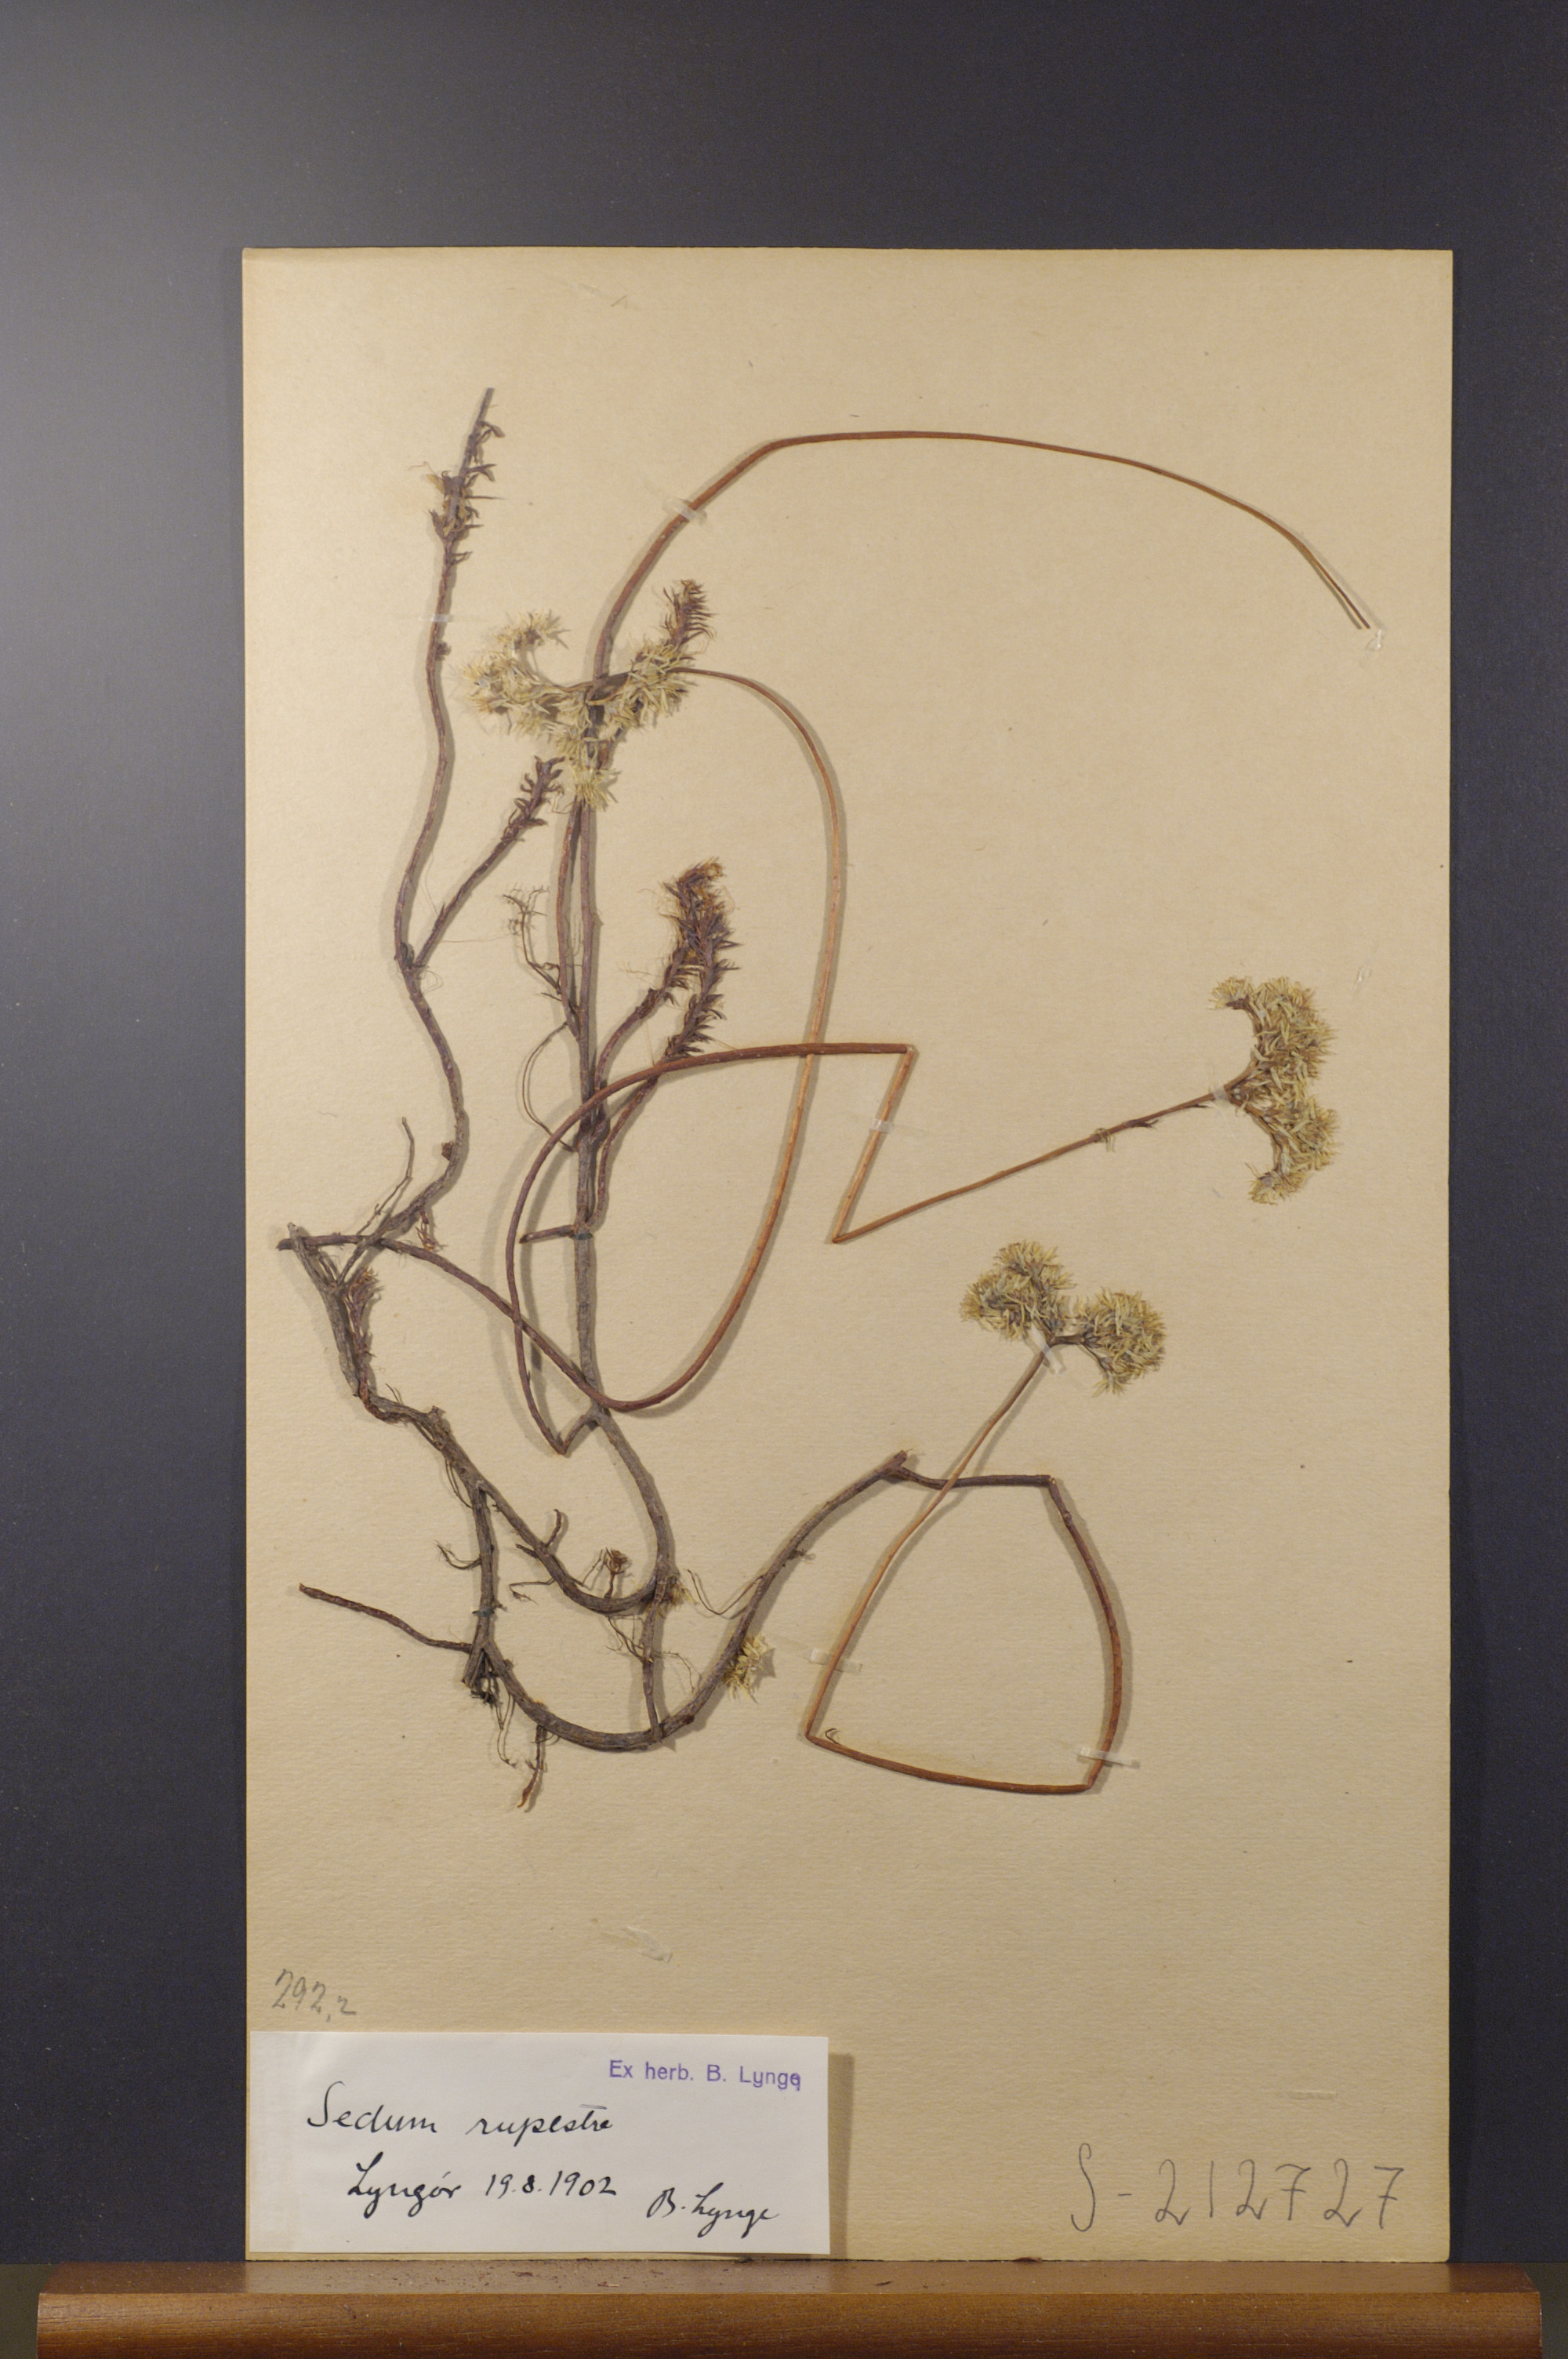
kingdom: Plantae
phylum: Tracheophyta
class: Magnoliopsida
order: Saxifragales
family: Crassulaceae
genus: Petrosedum
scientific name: Petrosedum rupestre
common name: Jenny's stonecrop
